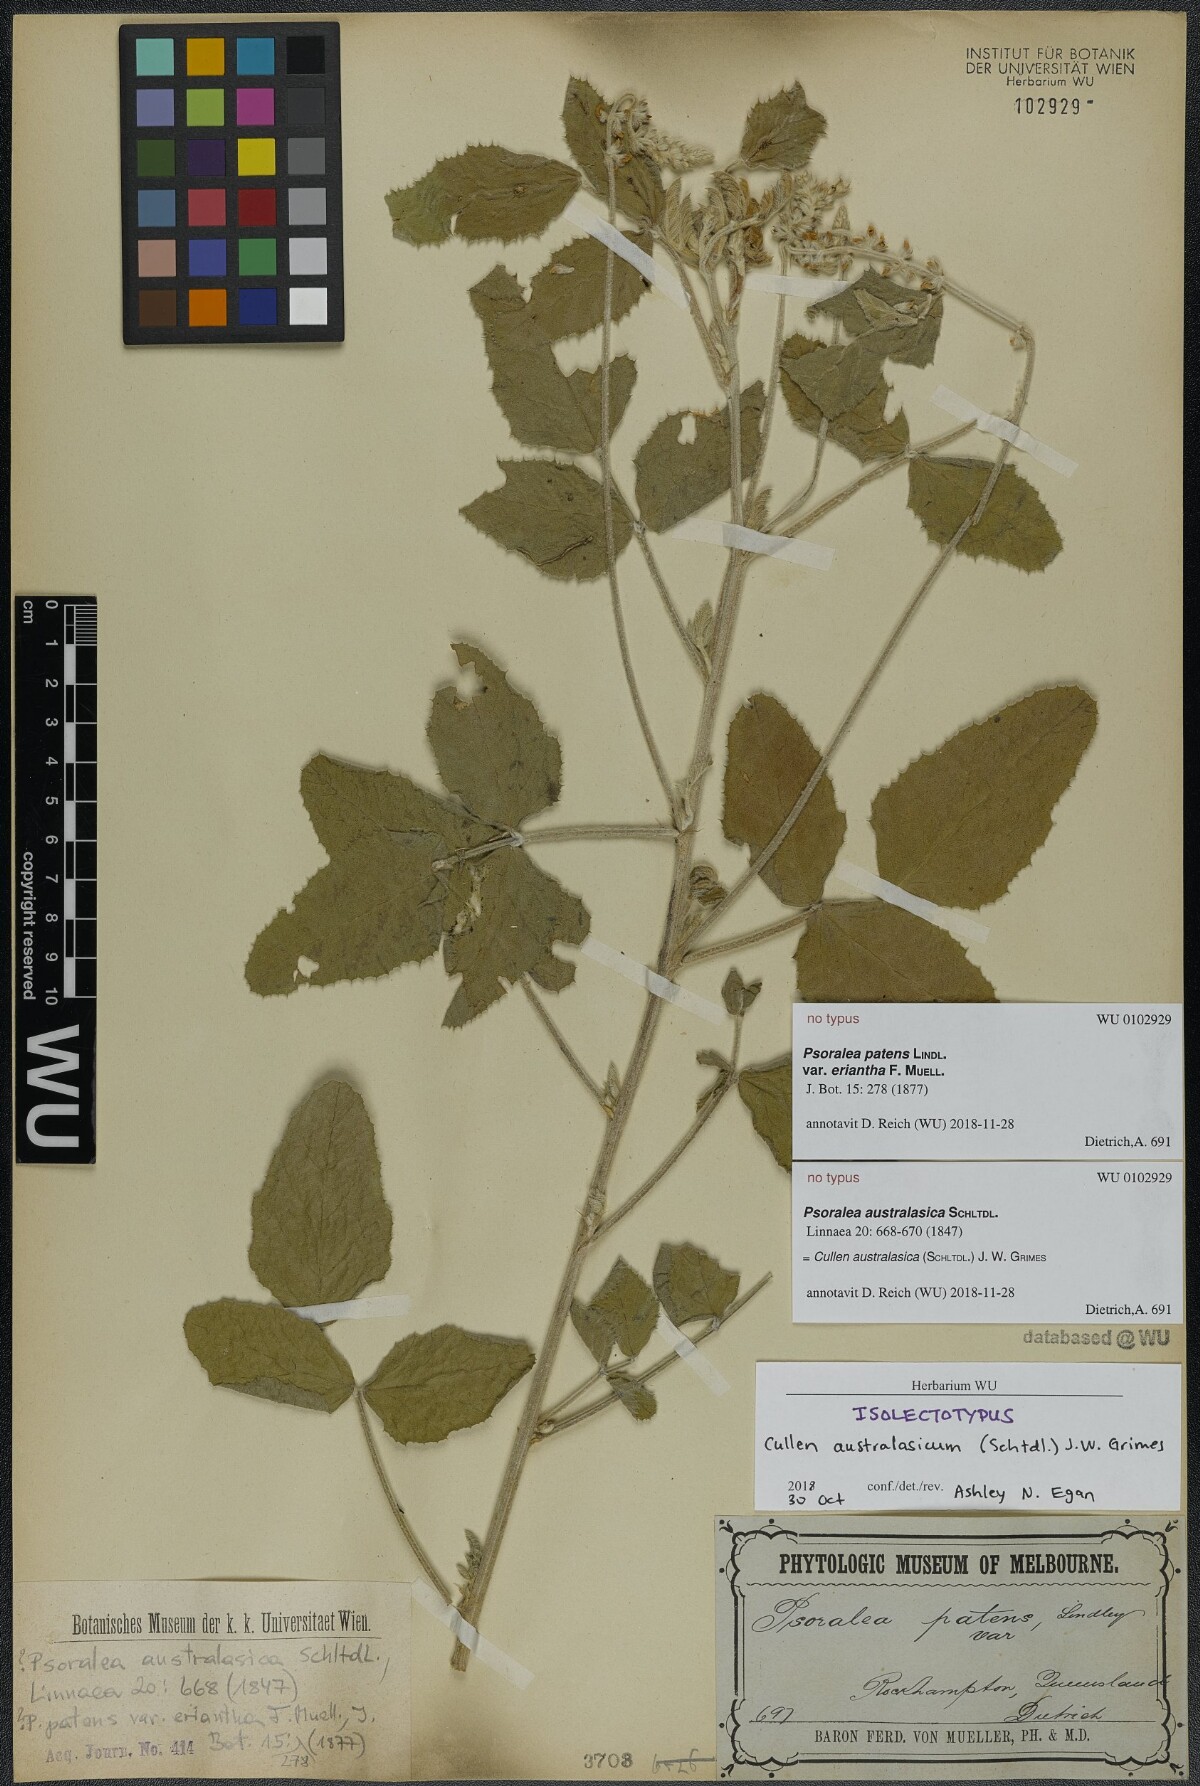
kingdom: Plantae
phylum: Tracheophyta
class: Magnoliopsida
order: Fabales
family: Fabaceae
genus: Cullen
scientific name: Cullen australasicum
